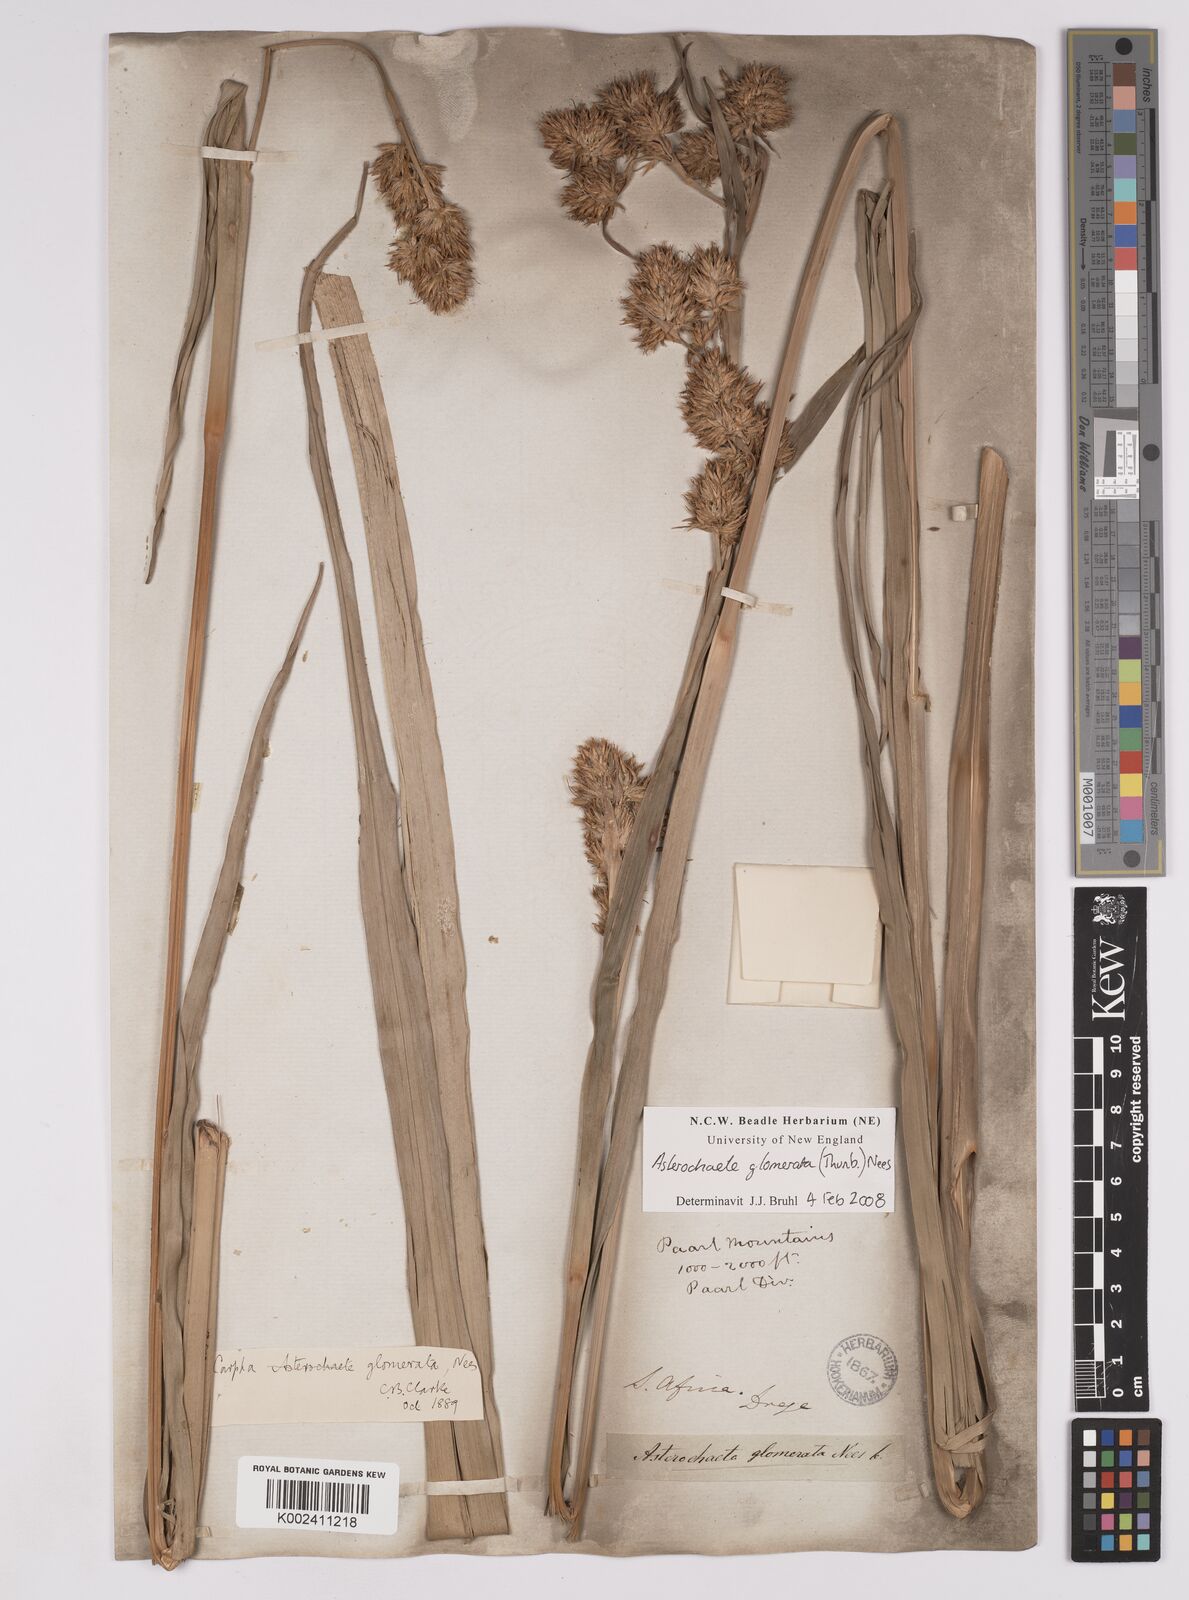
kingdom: Plantae
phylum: Tracheophyta
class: Liliopsida
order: Poales
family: Cyperaceae
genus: Carpha
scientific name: Carpha glomerata
